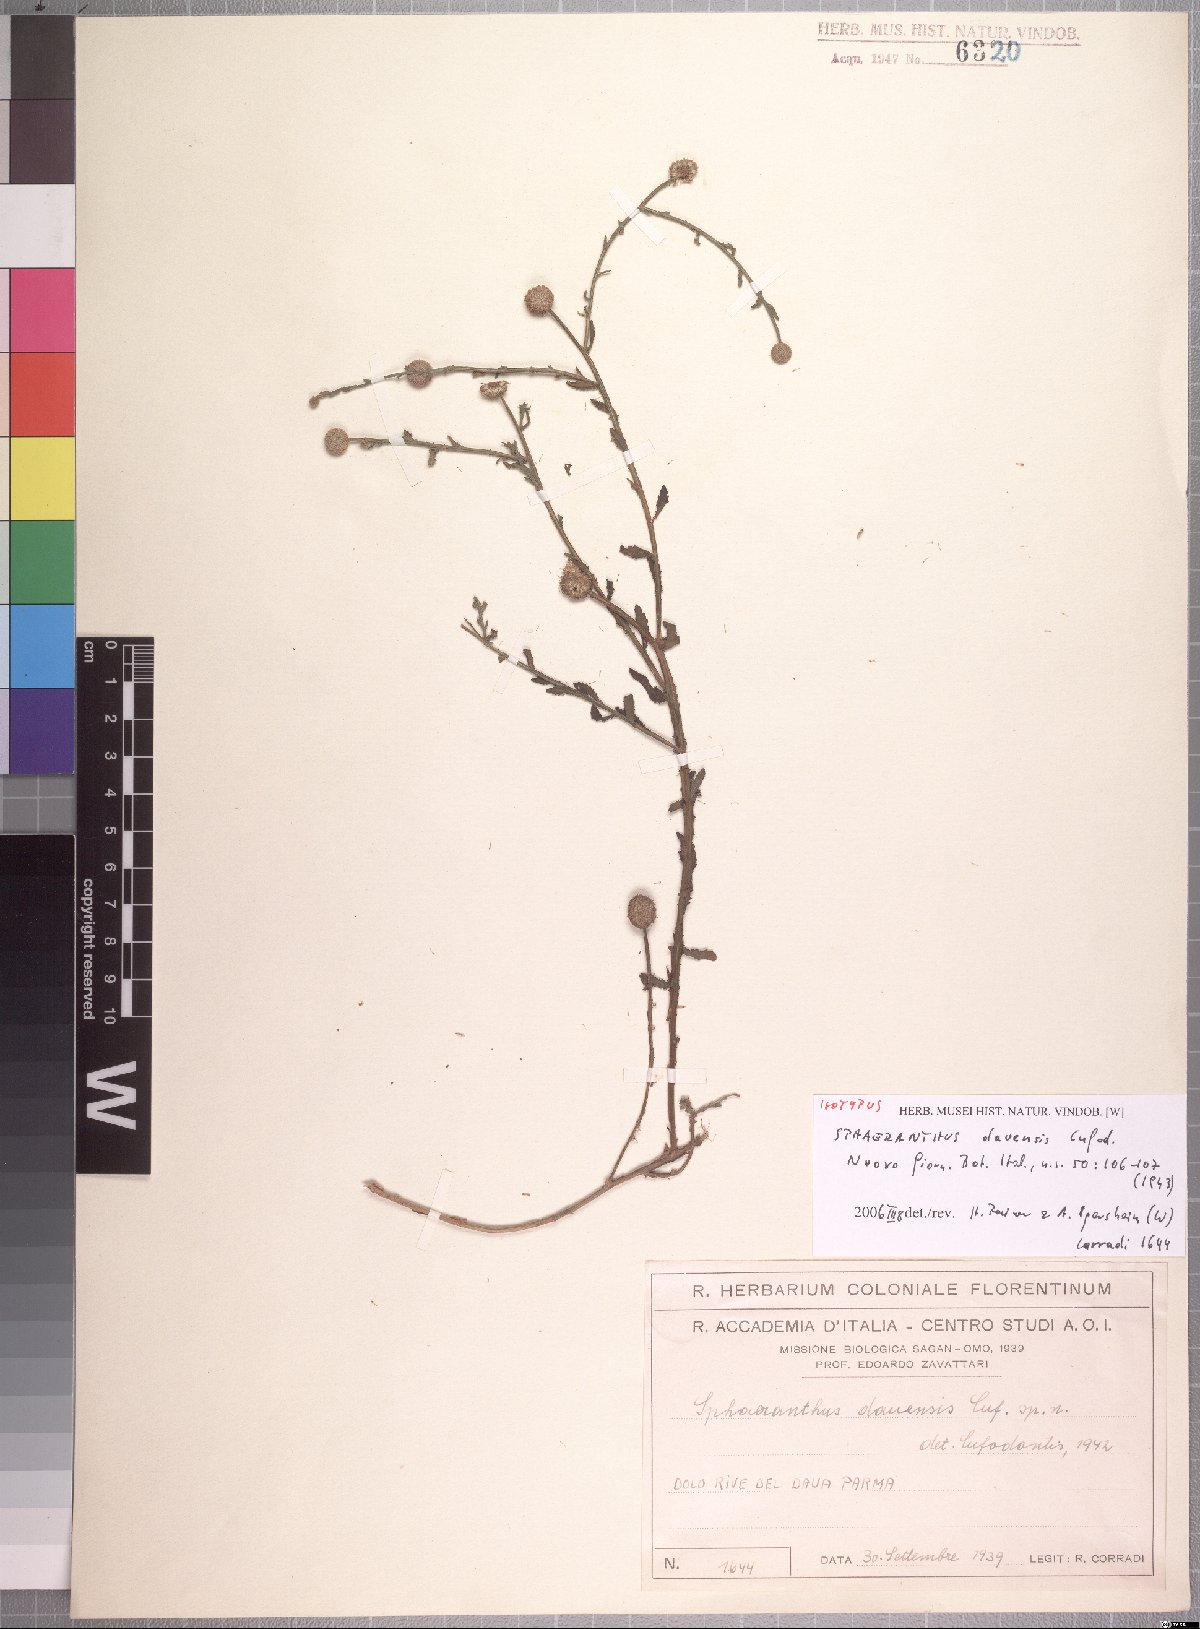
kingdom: Plantae
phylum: Tracheophyta
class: Magnoliopsida
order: Asterales
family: Asteraceae
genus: Sphaeranthus
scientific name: Sphaeranthus ukambensis
